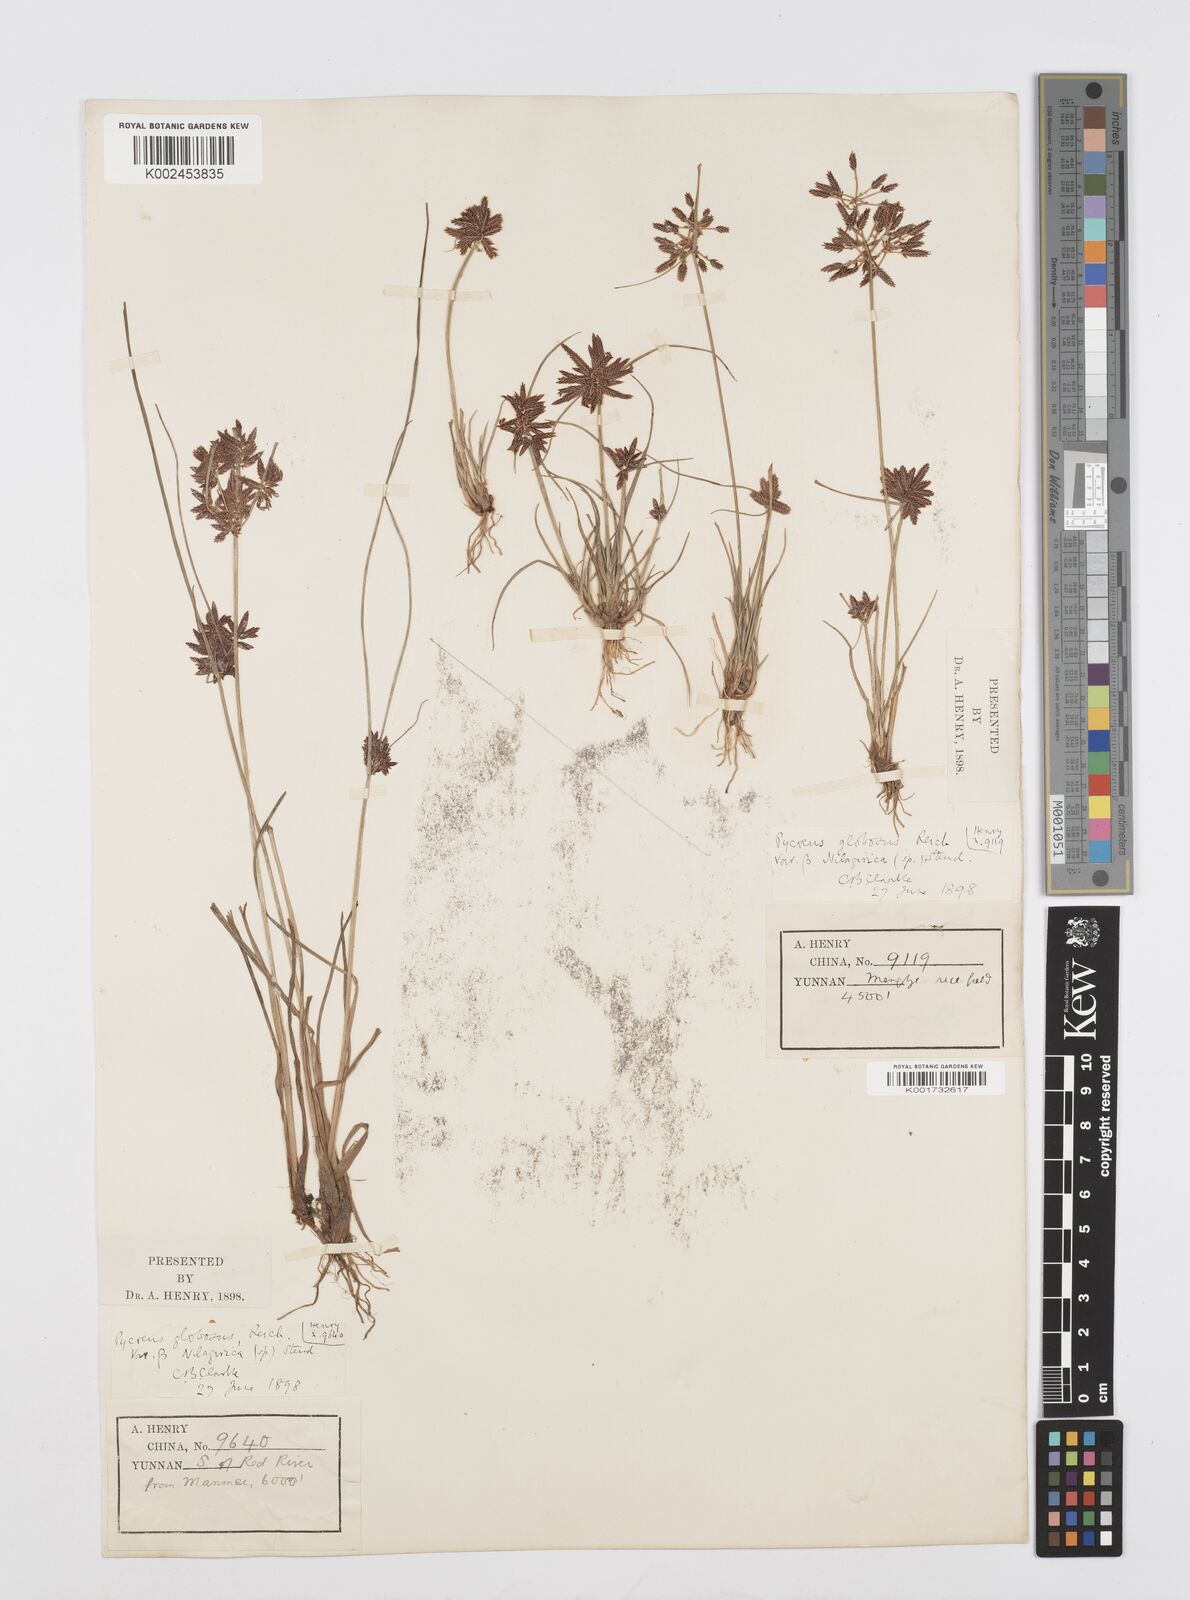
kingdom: Plantae
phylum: Tracheophyta
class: Liliopsida
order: Poales
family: Cyperaceae
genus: Cyperus
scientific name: Cyperus flavidus
